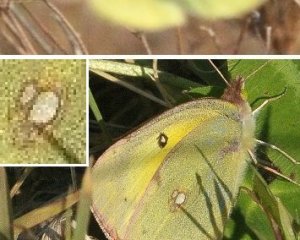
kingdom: Animalia
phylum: Arthropoda
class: Insecta
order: Lepidoptera
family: Pieridae
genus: Colias
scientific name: Colias philodice
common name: Clouded Sulphur
